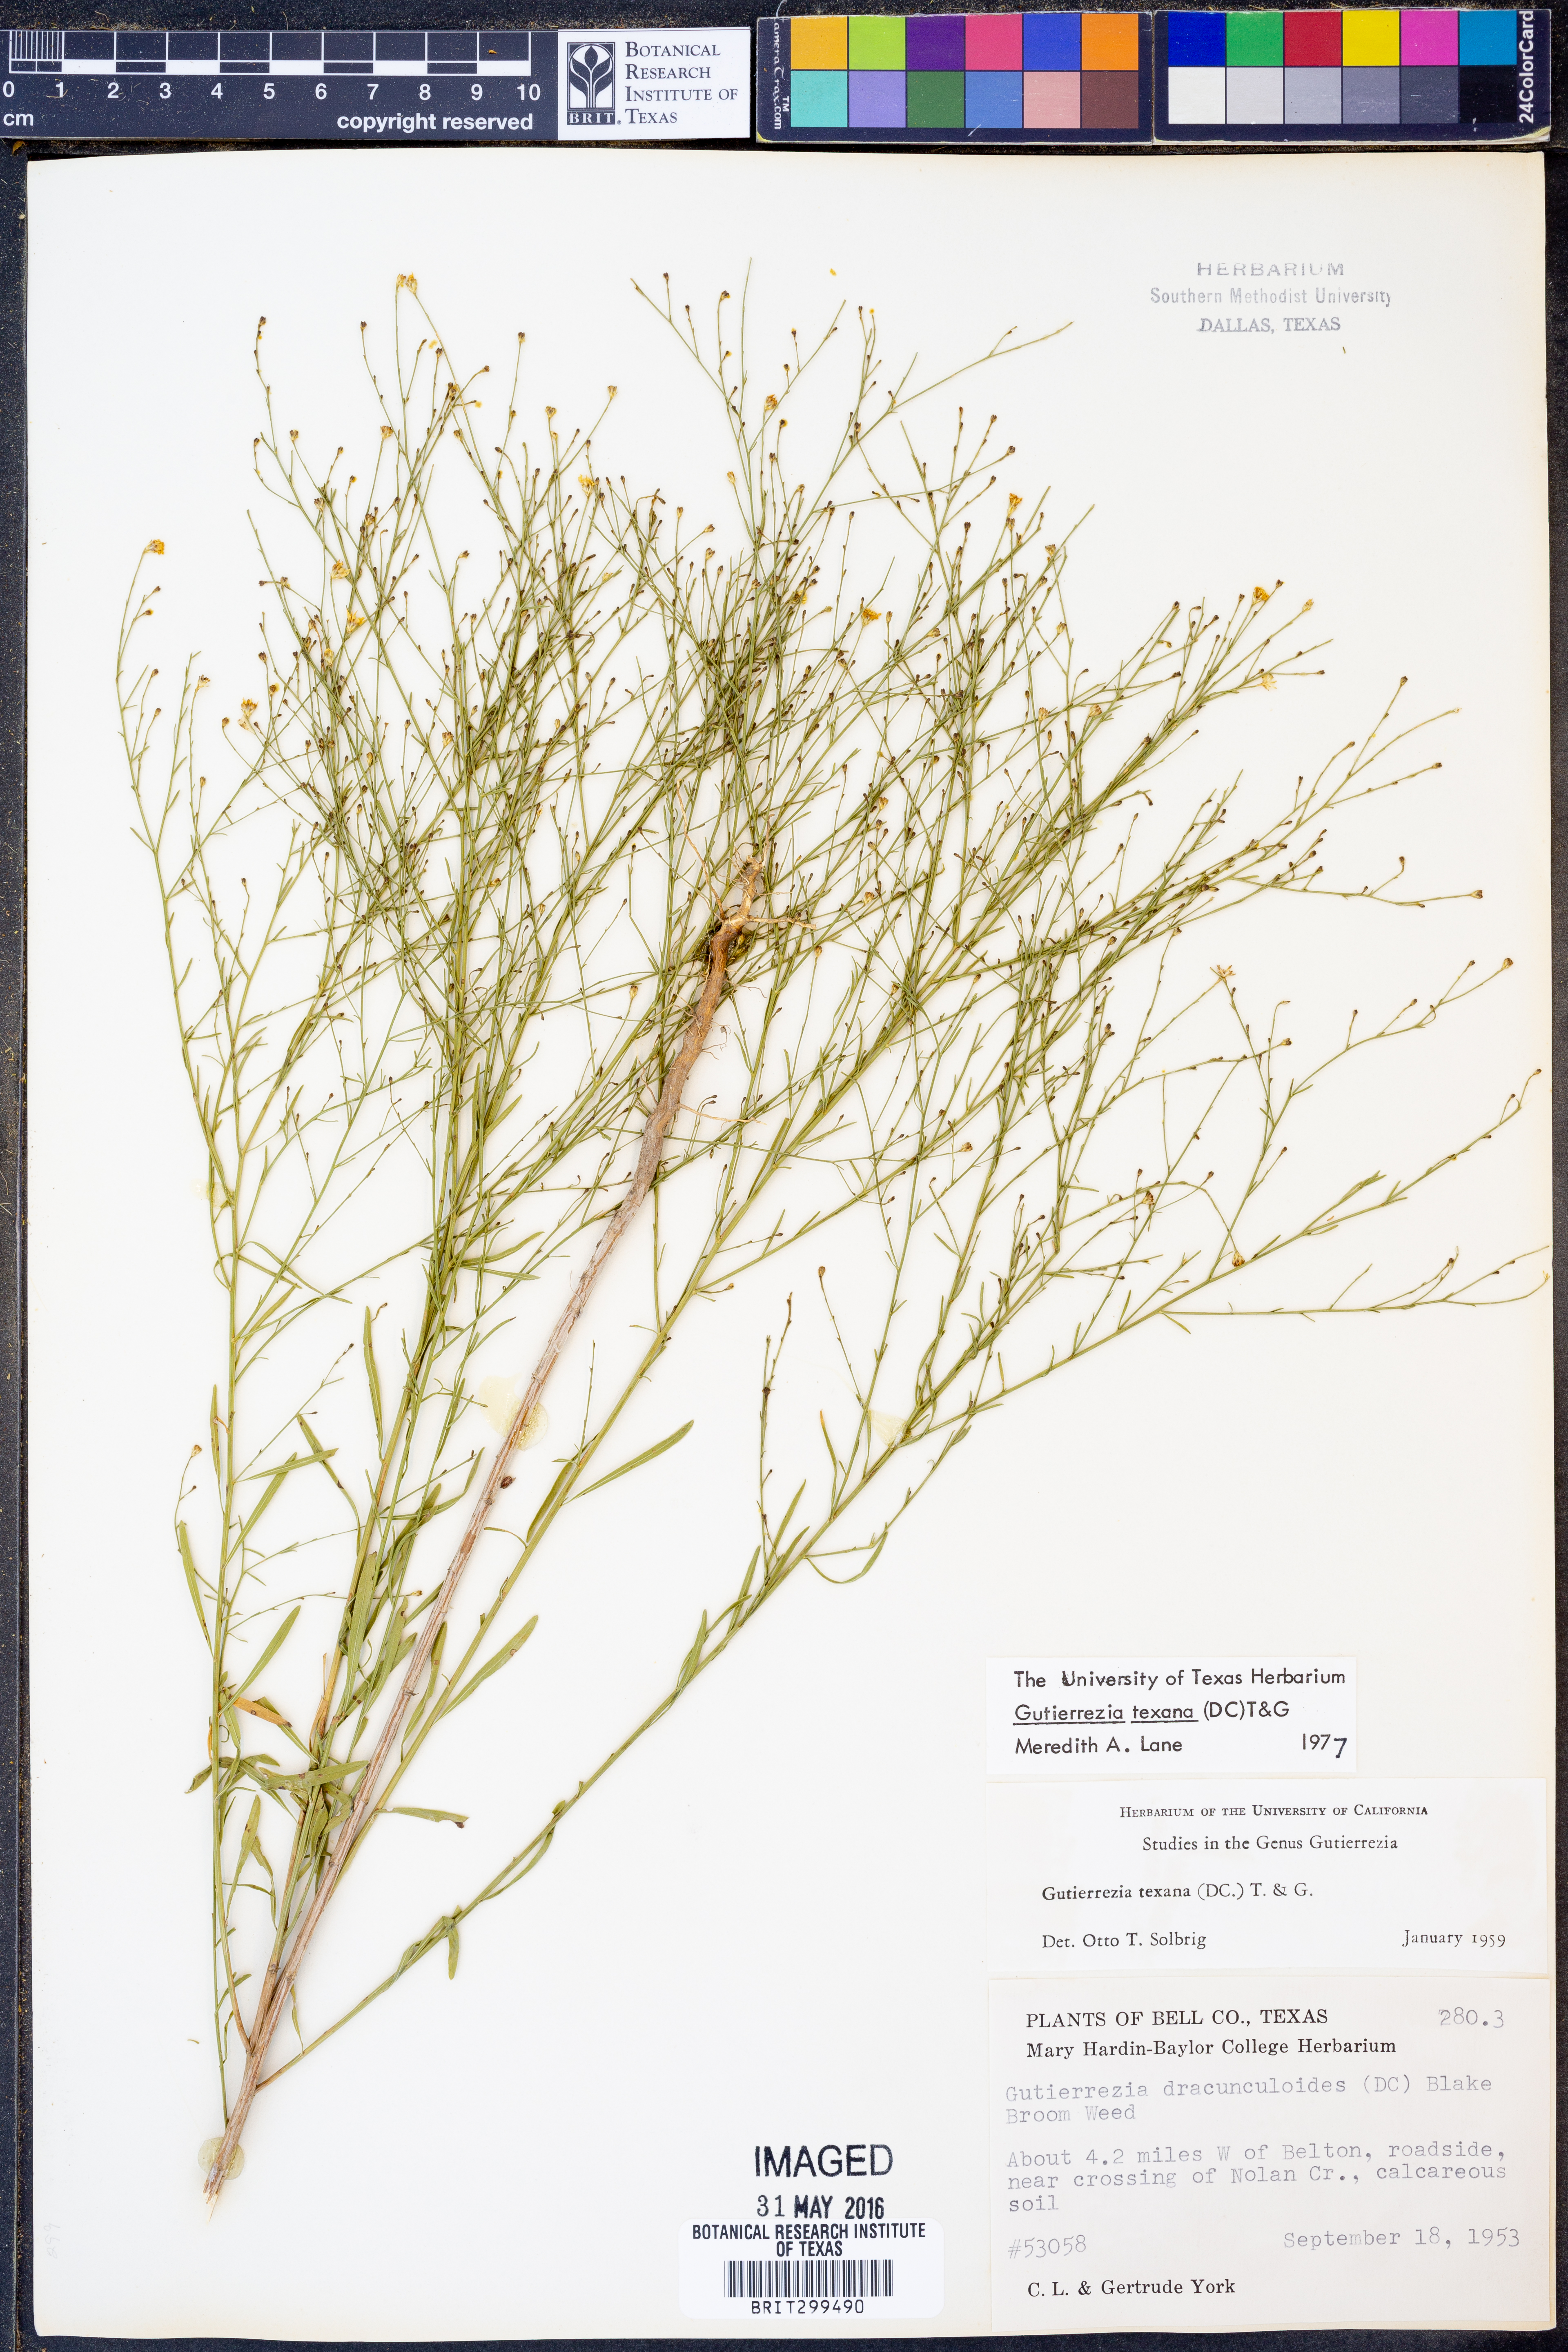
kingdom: Plantae
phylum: Tracheophyta
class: Magnoliopsida
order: Asterales
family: Asteraceae
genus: Gutierrezia
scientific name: Gutierrezia texana
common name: Texas snakeweed
